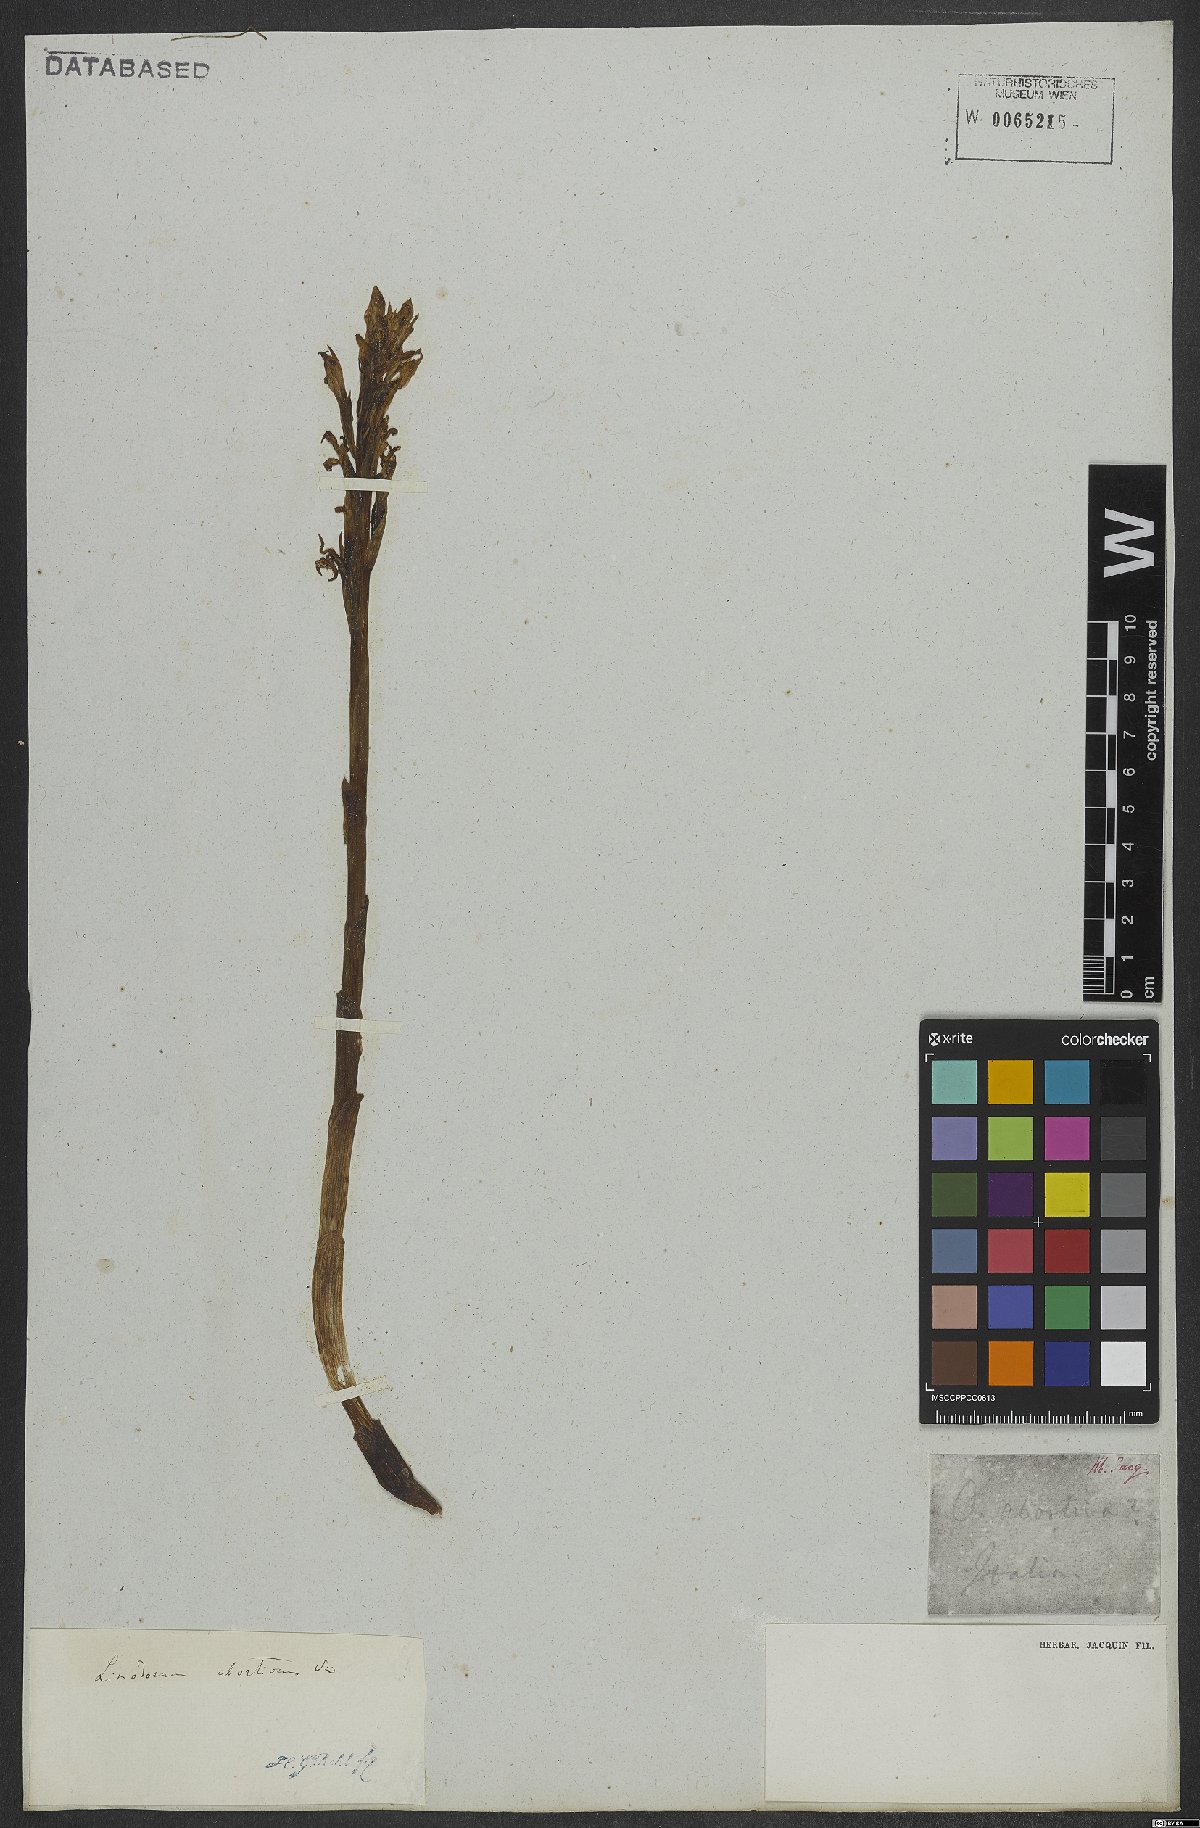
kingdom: Plantae
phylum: Tracheophyta
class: Liliopsida
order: Asparagales
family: Orchidaceae
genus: Limodorum
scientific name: Limodorum abortivum
